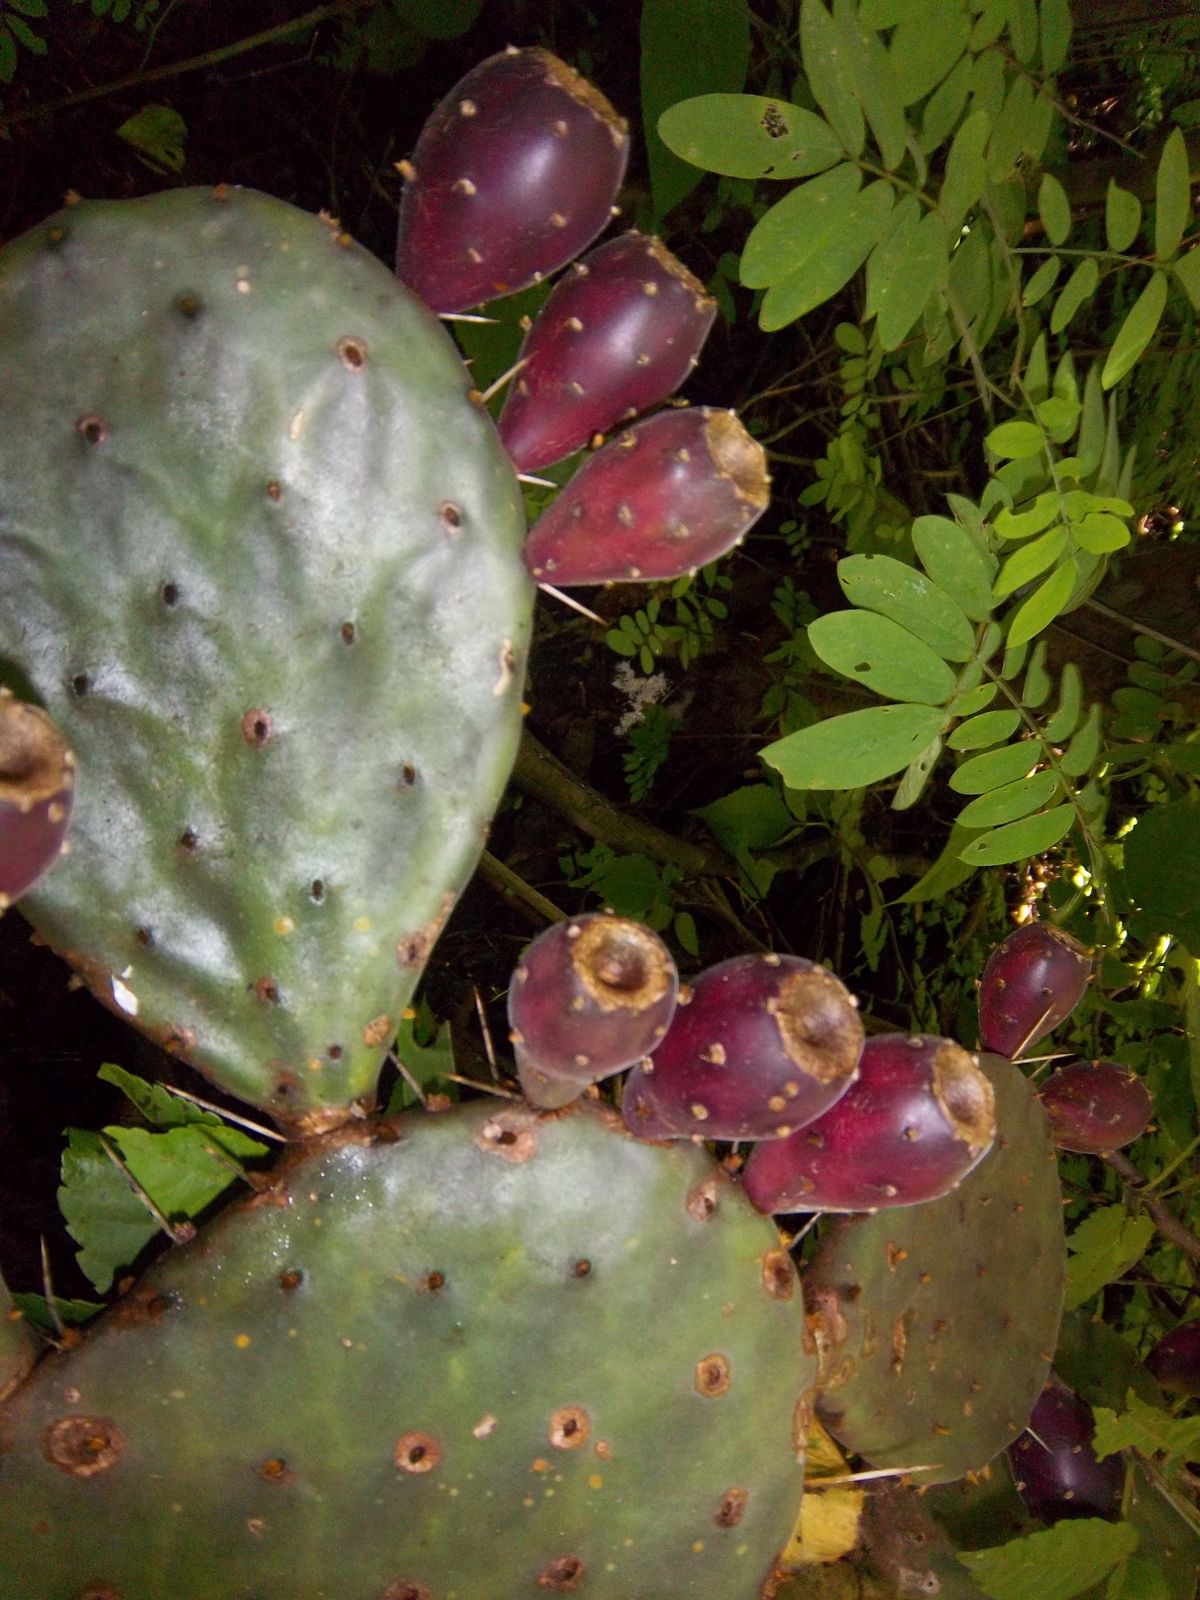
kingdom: Plantae
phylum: Tracheophyta
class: Magnoliopsida
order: Caryophyllales
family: Cactaceae
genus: Opuntia
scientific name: Opuntia decumbens
